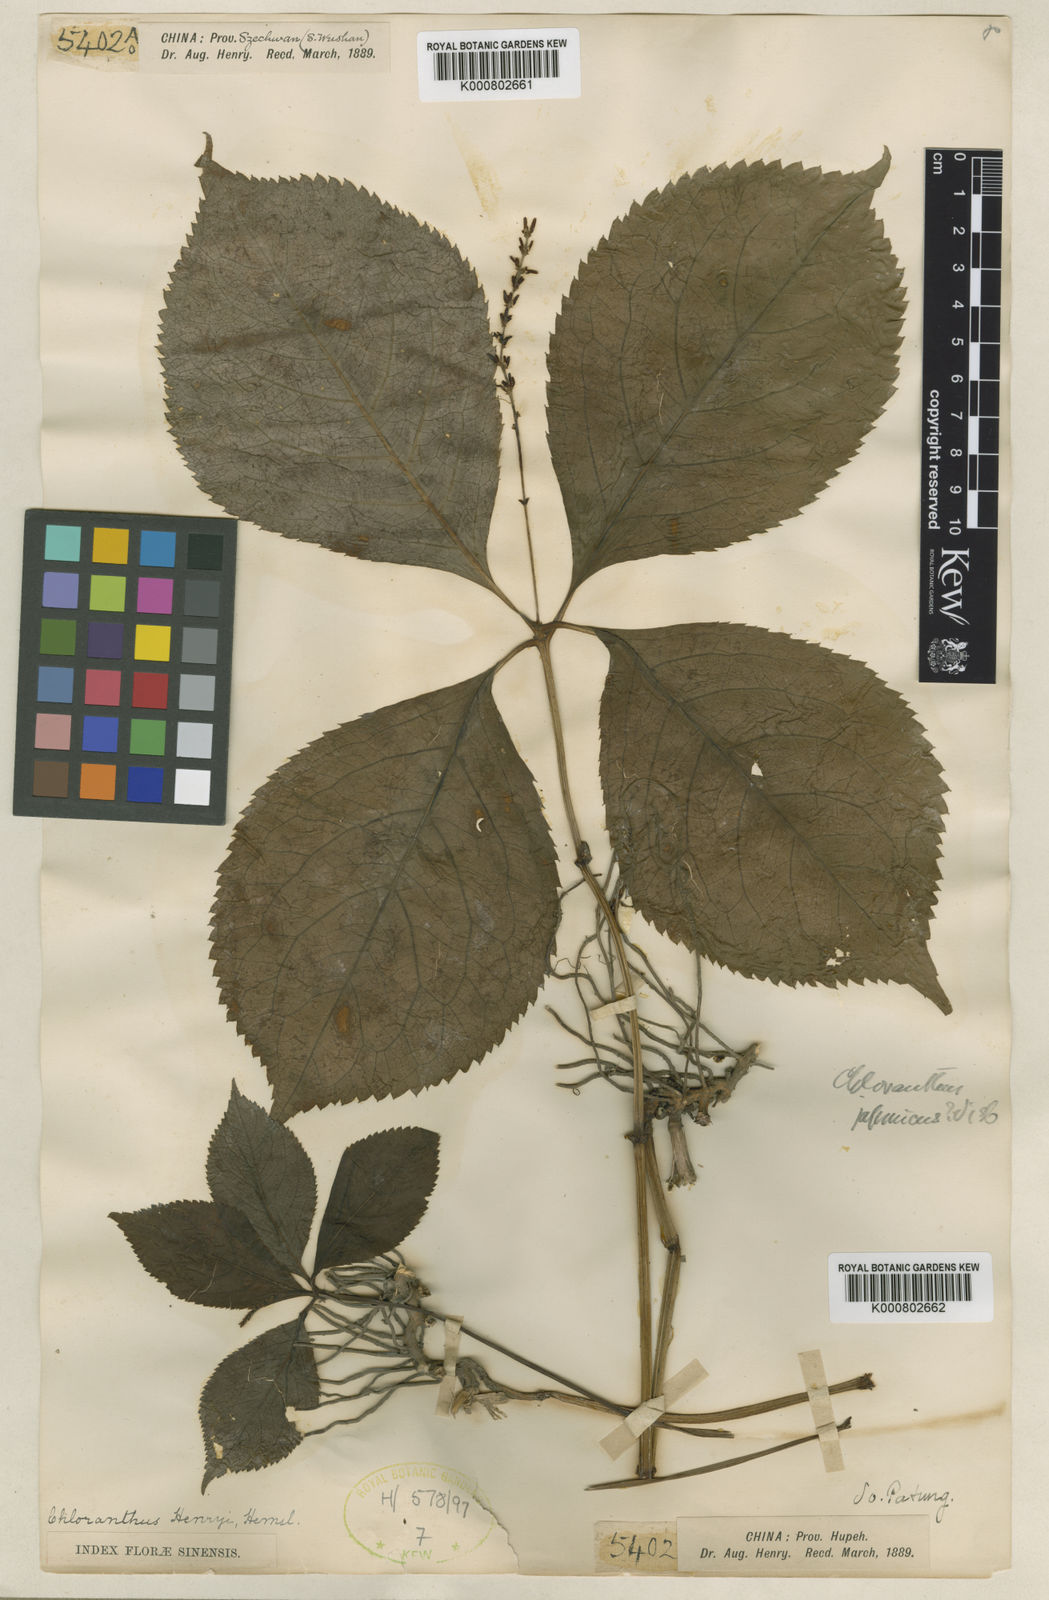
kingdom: Plantae
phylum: Tracheophyta
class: Magnoliopsida
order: Chloranthales
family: Chloranthaceae
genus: Chloranthus
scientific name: Chloranthus holostegius
